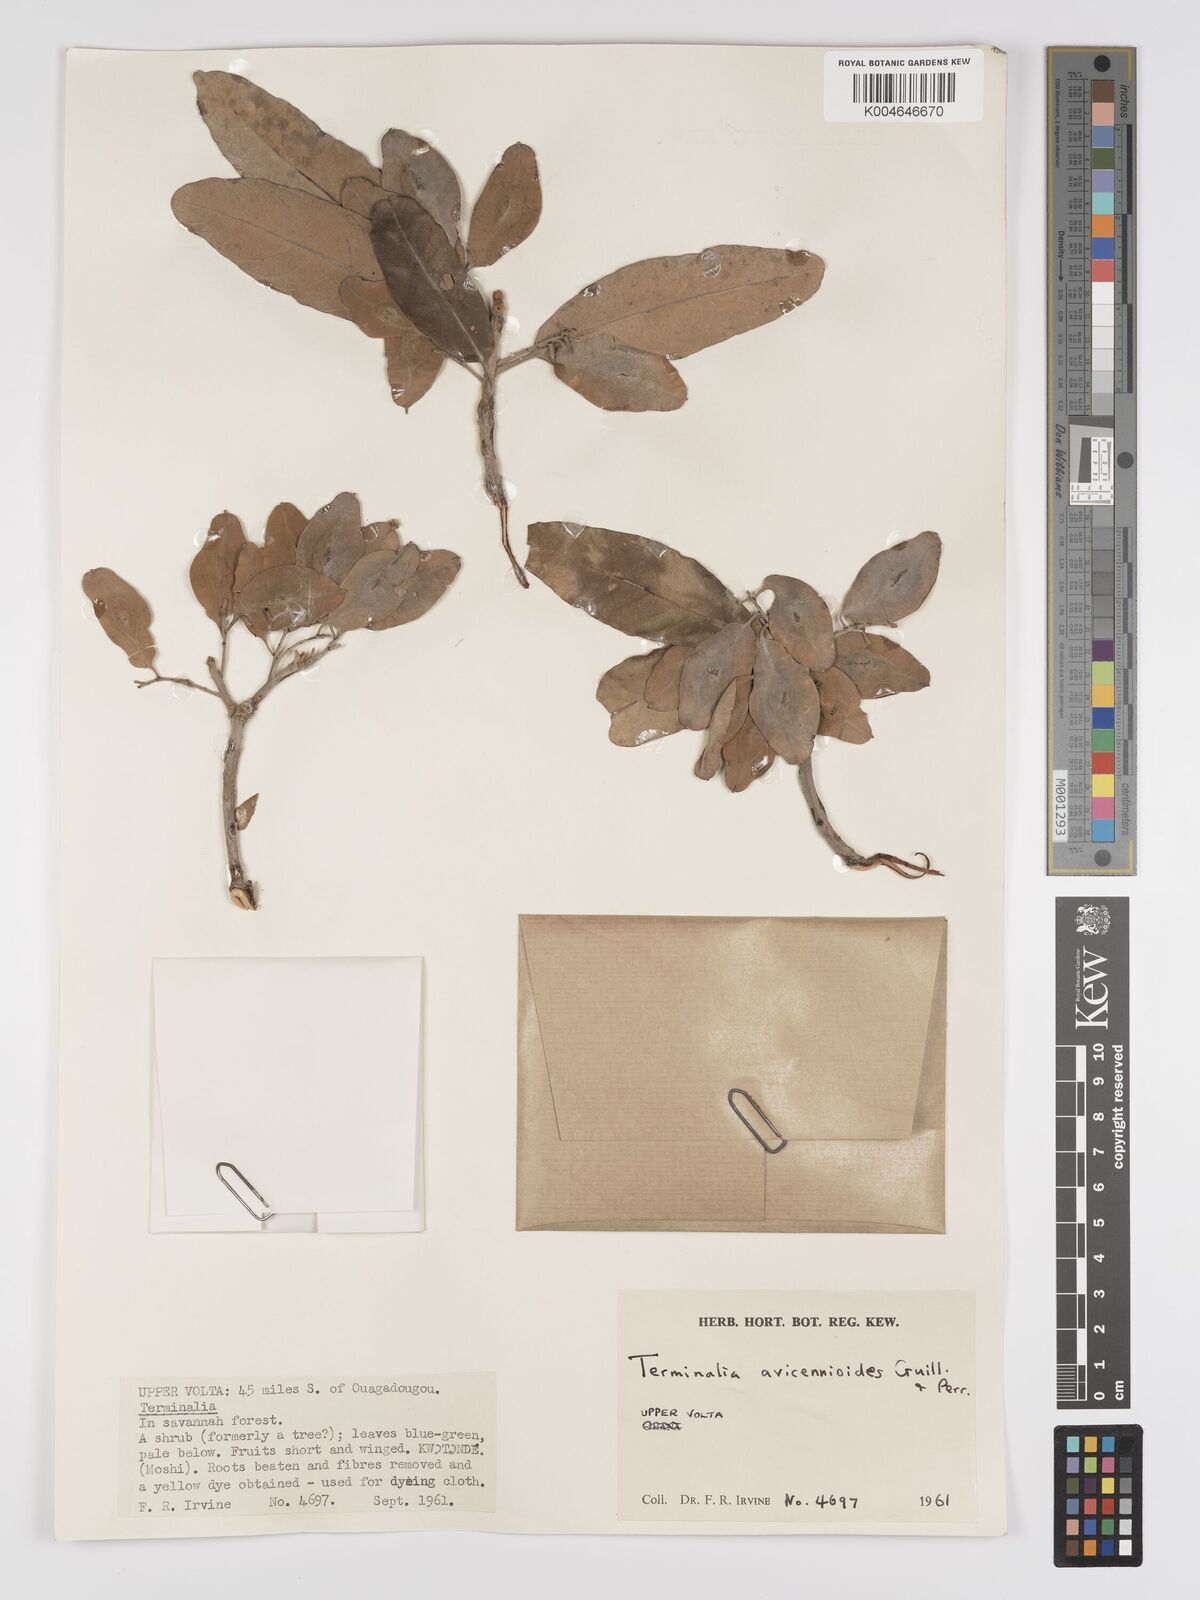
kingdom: Plantae
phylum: Tracheophyta
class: Magnoliopsida
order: Myrtales
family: Combretaceae
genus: Terminalia
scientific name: Terminalia avicennioides
